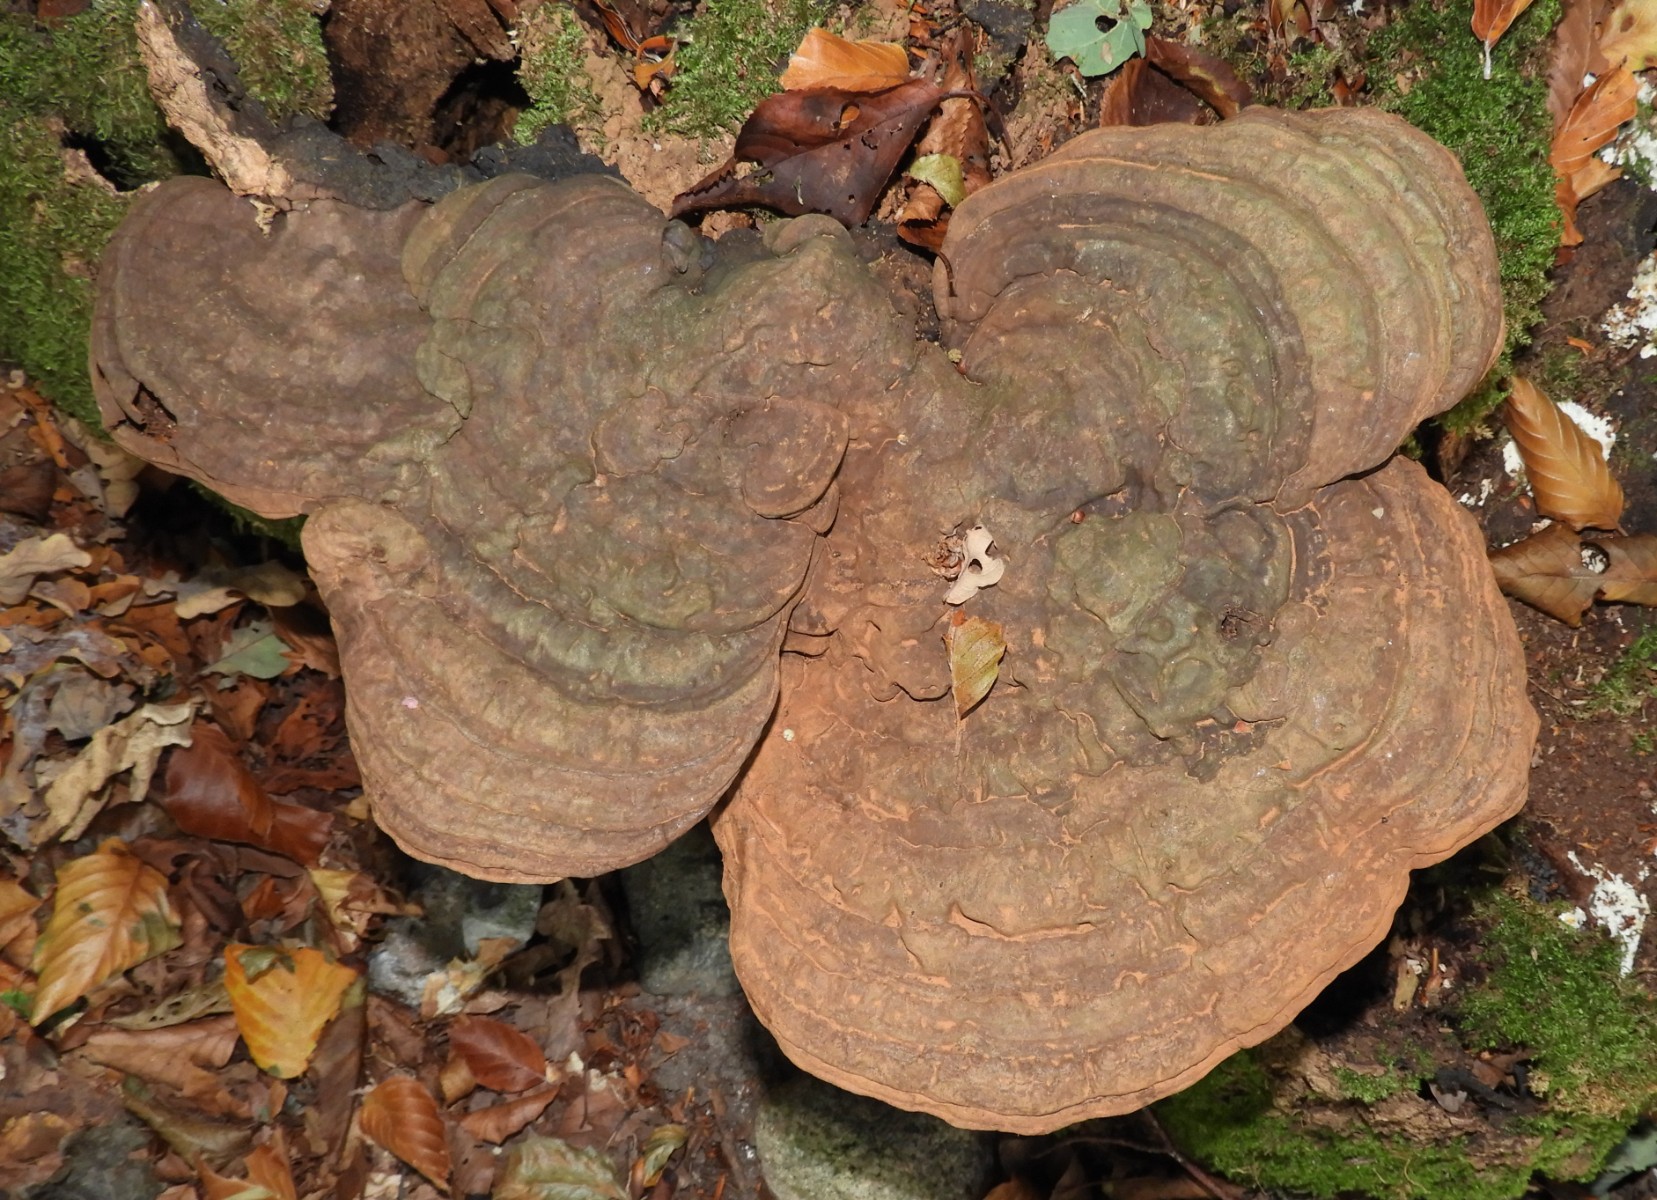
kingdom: Fungi
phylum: Basidiomycota
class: Agaricomycetes
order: Polyporales
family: Polyporaceae
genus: Ganoderma
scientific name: Ganoderma applanatum
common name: flad lakporesvamp
